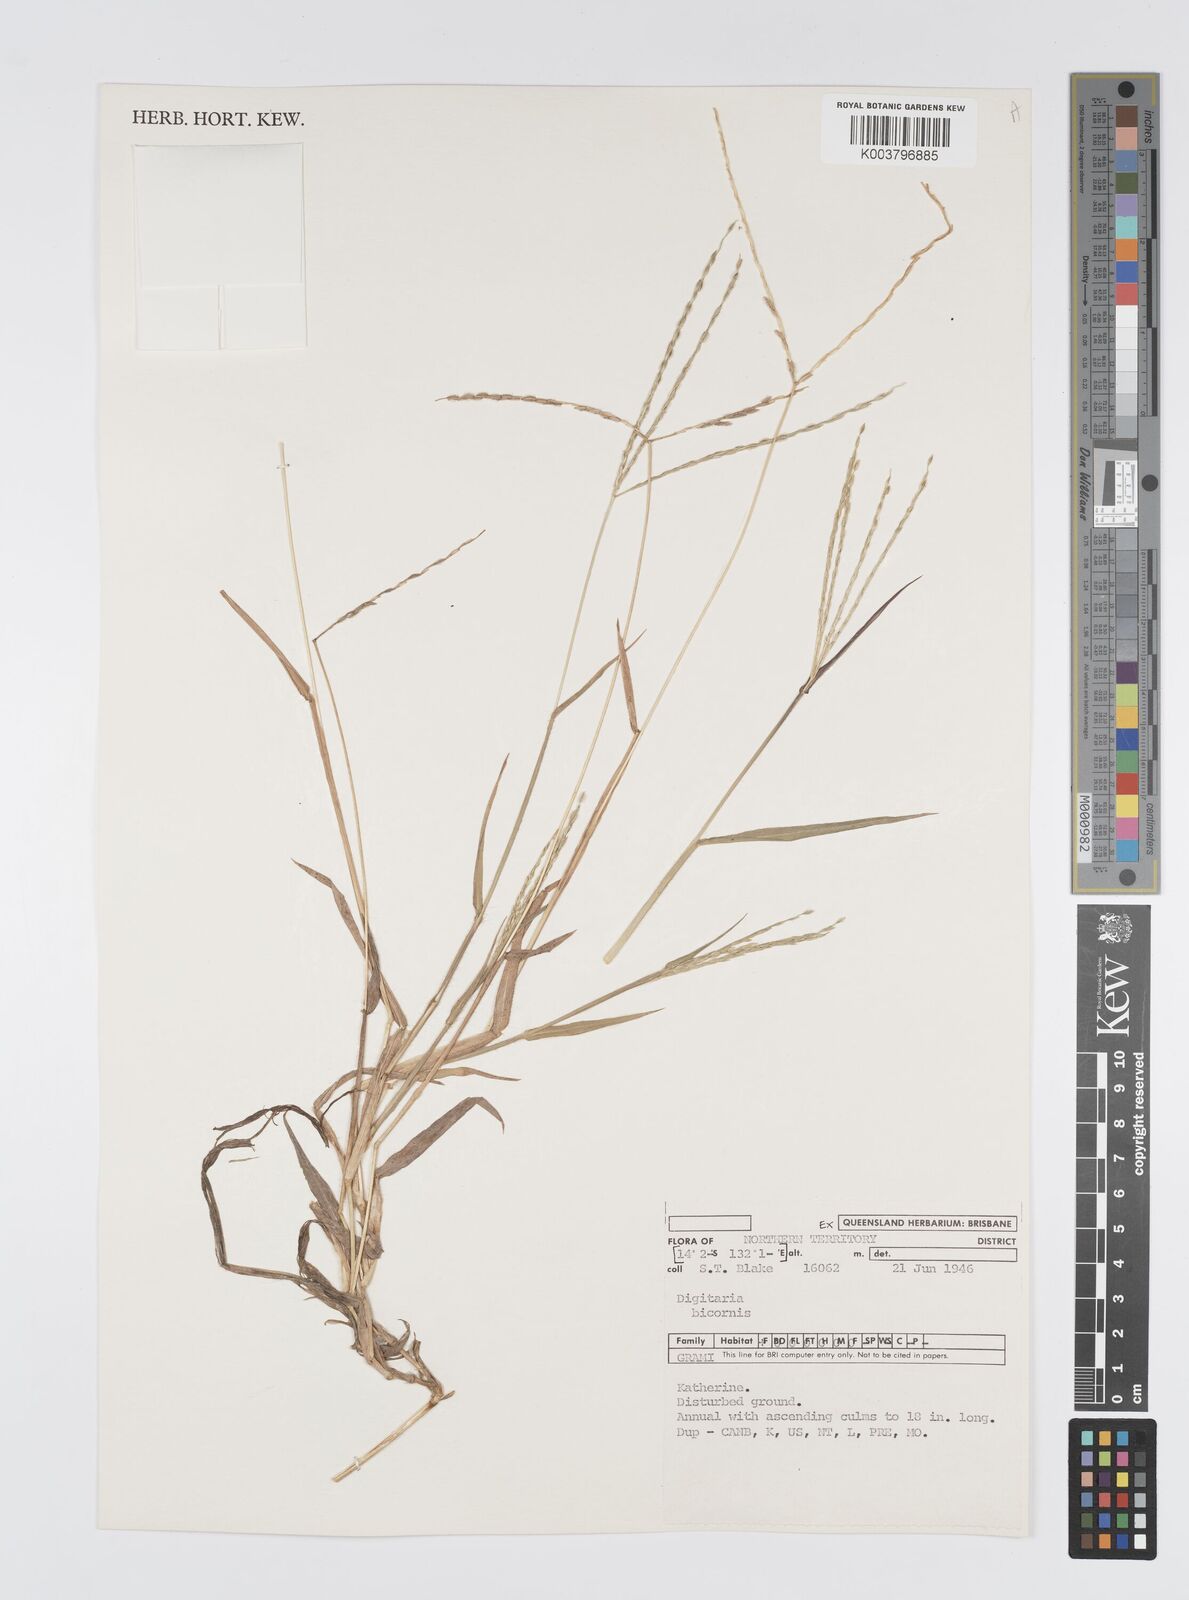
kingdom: Plantae
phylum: Tracheophyta
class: Liliopsida
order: Poales
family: Poaceae
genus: Digitaria
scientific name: Digitaria bicornis
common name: Asian crabgrass
